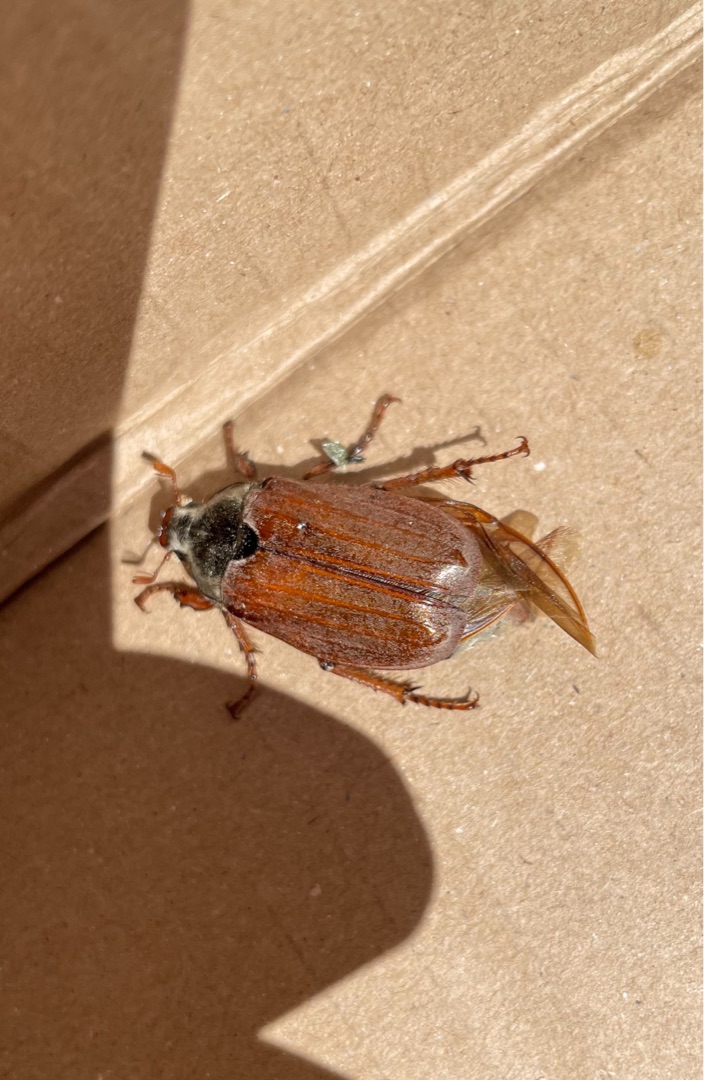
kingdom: Animalia
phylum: Arthropoda
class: Insecta
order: Coleoptera
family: Scarabaeidae
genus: Melolontha
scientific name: Melolontha melolontha
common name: Almindelig oldenborre
